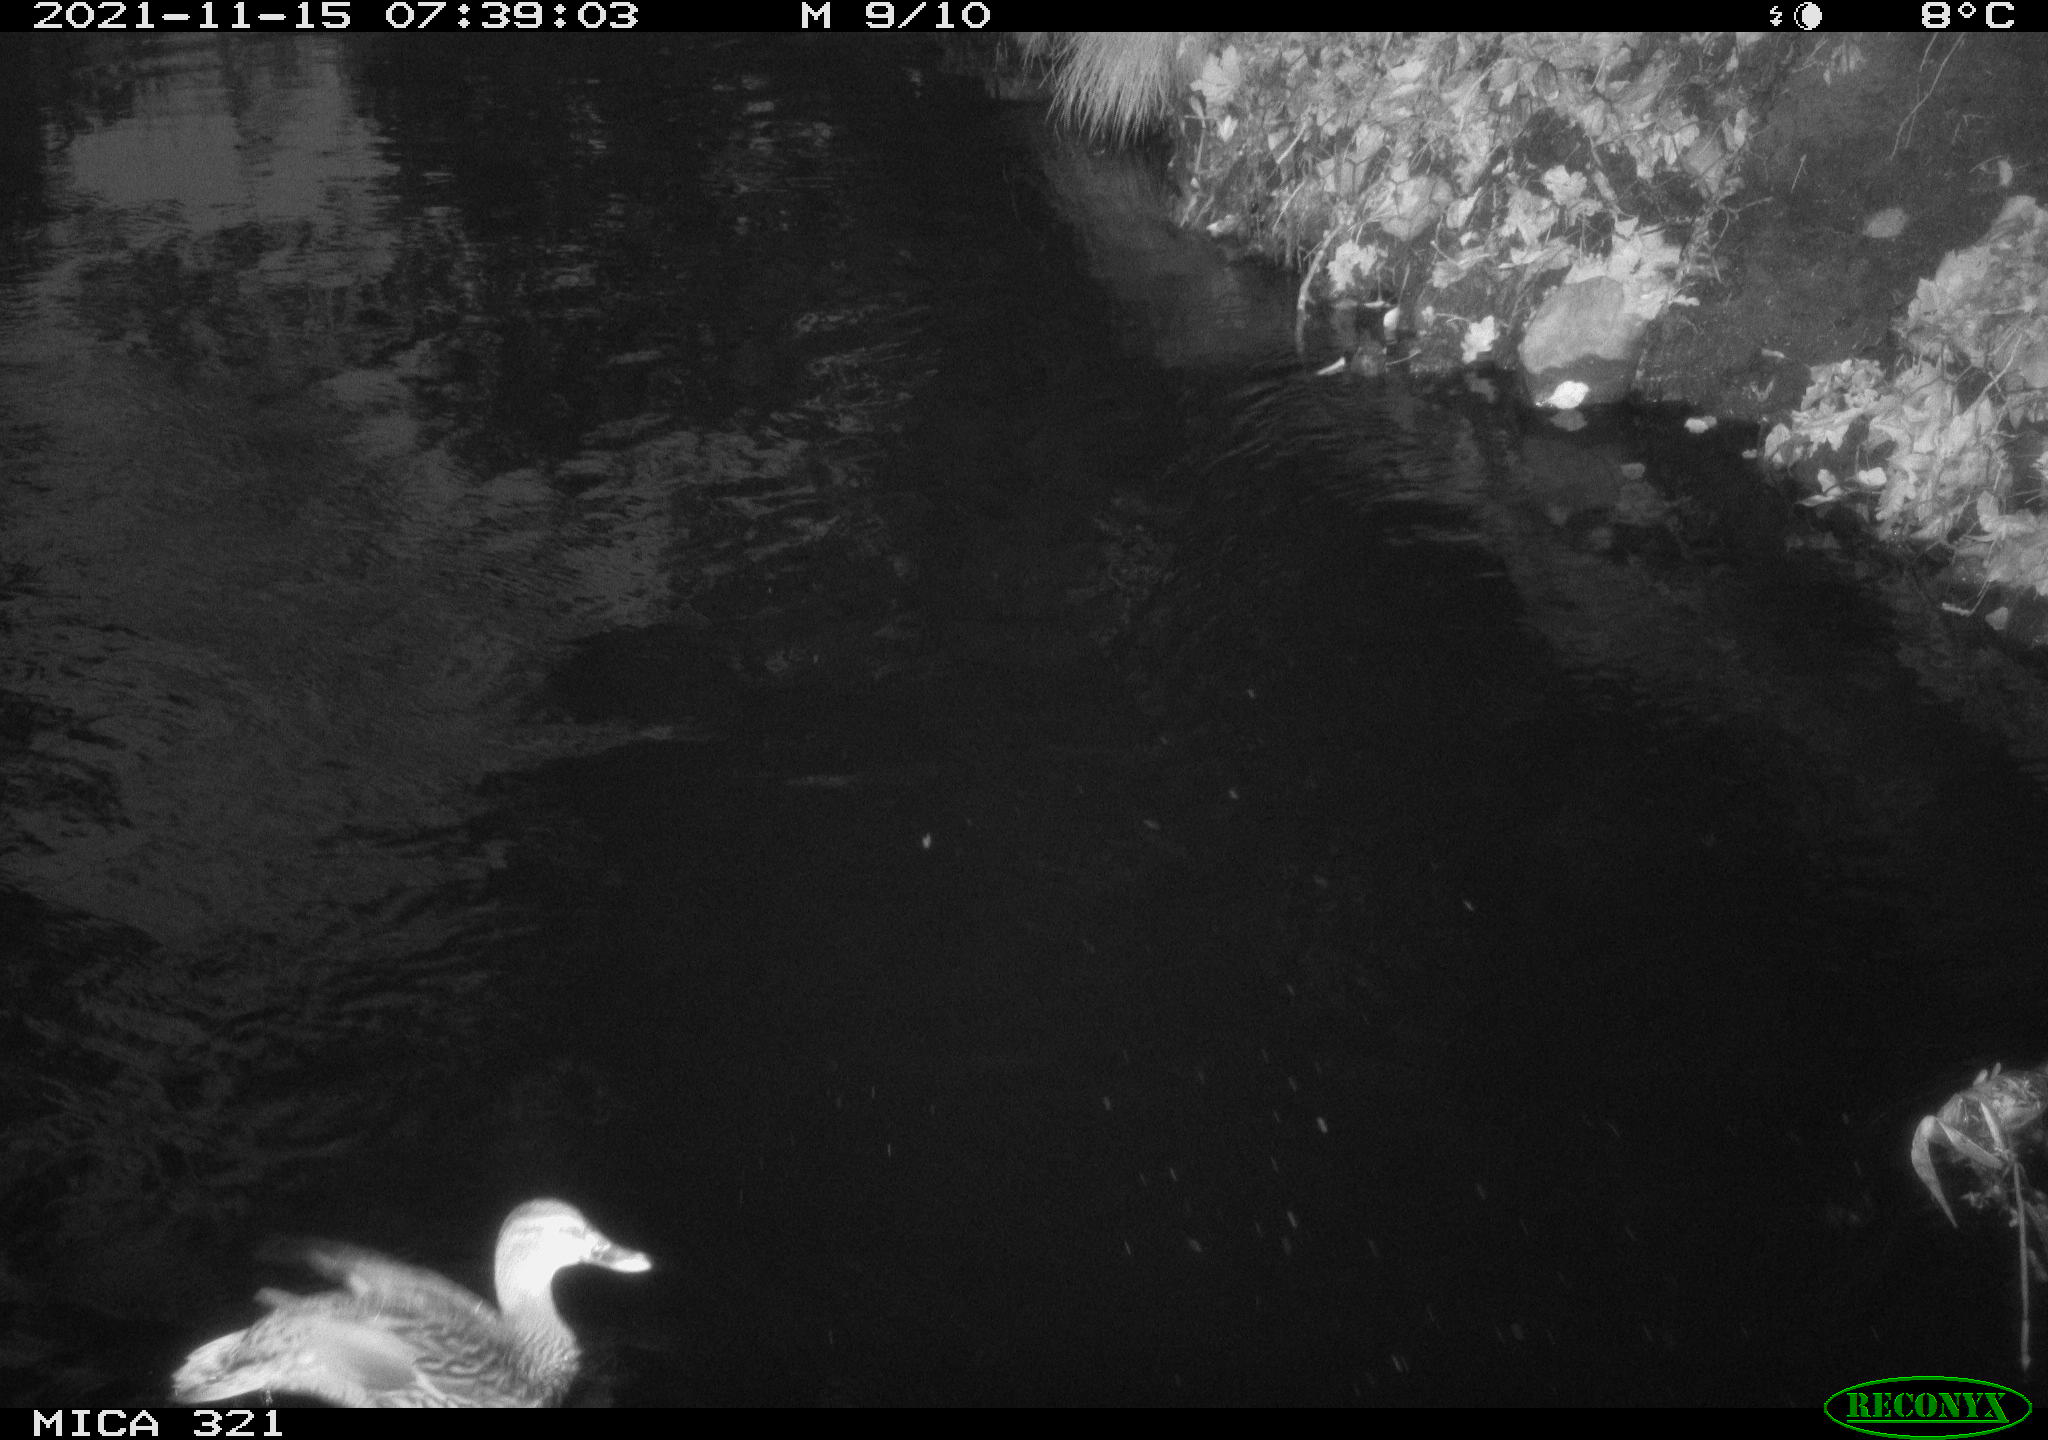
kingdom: Animalia
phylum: Chordata
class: Aves
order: Anseriformes
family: Anatidae
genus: Mareca
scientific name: Mareca strepera
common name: Gadwall
